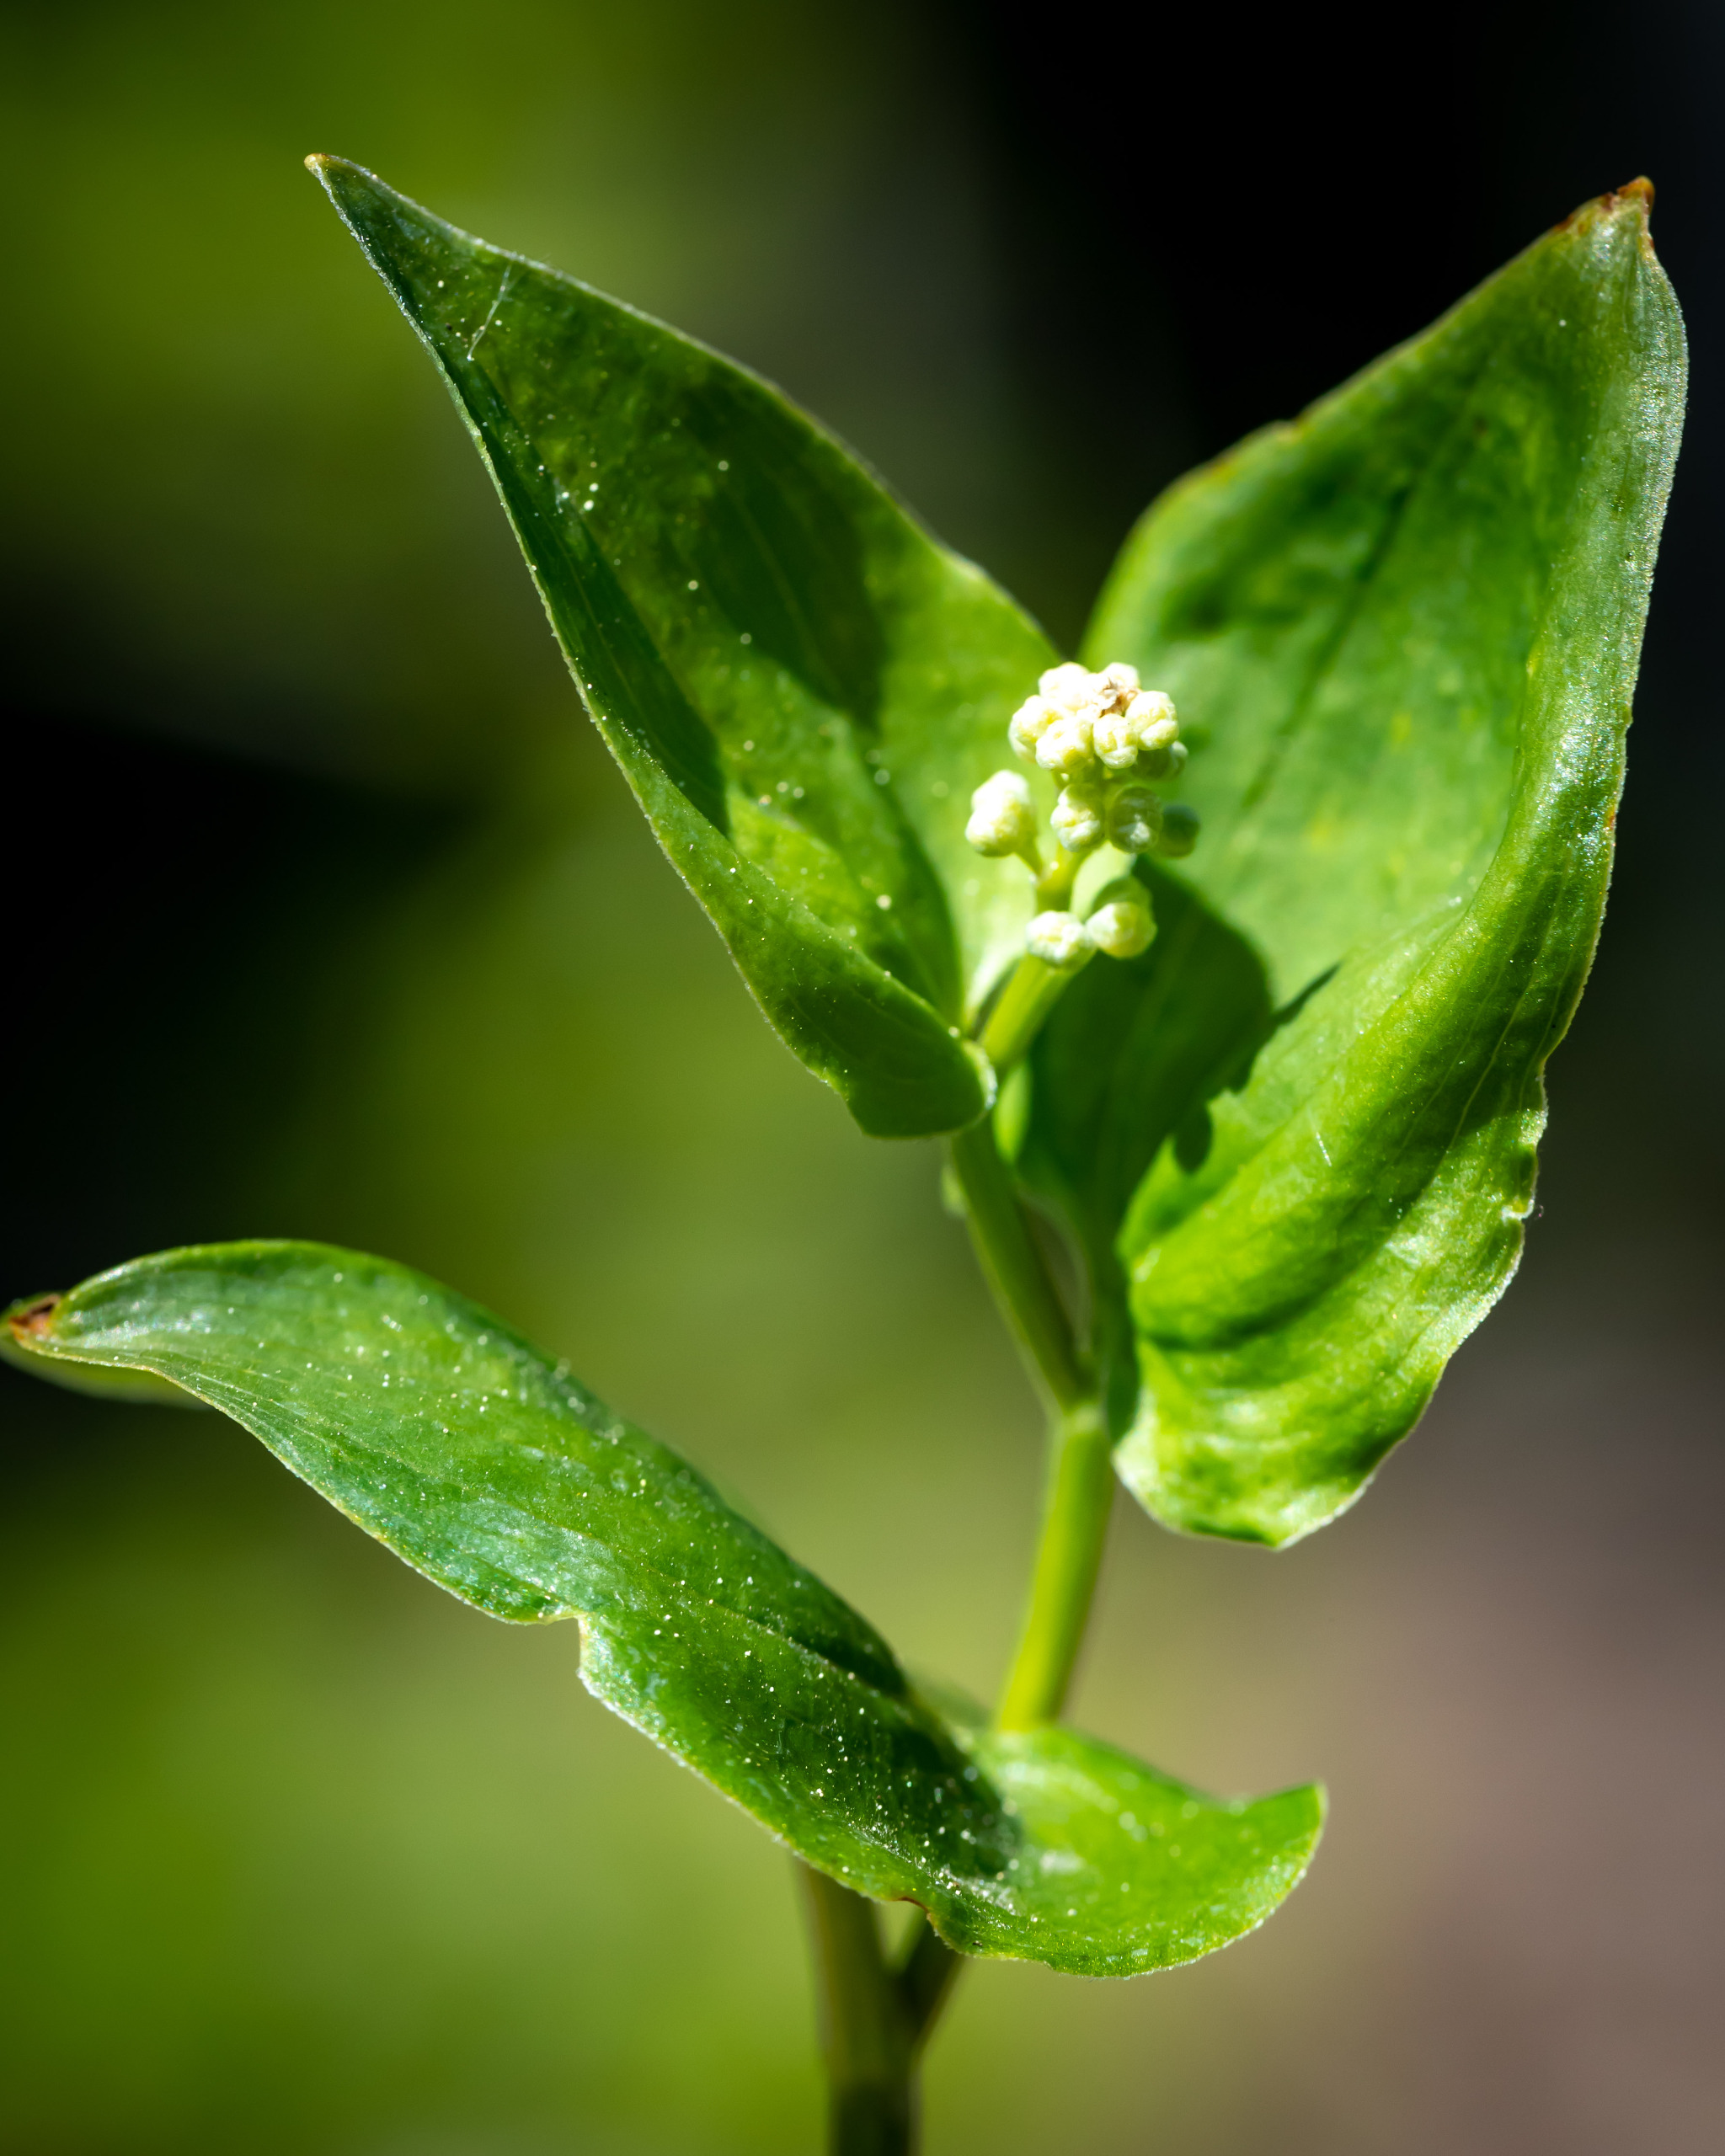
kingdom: Plantae
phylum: Tracheophyta
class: Liliopsida
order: Asparagales
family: Asparagaceae
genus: Maianthemum
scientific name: Maianthemum bifolium
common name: Majblomst
